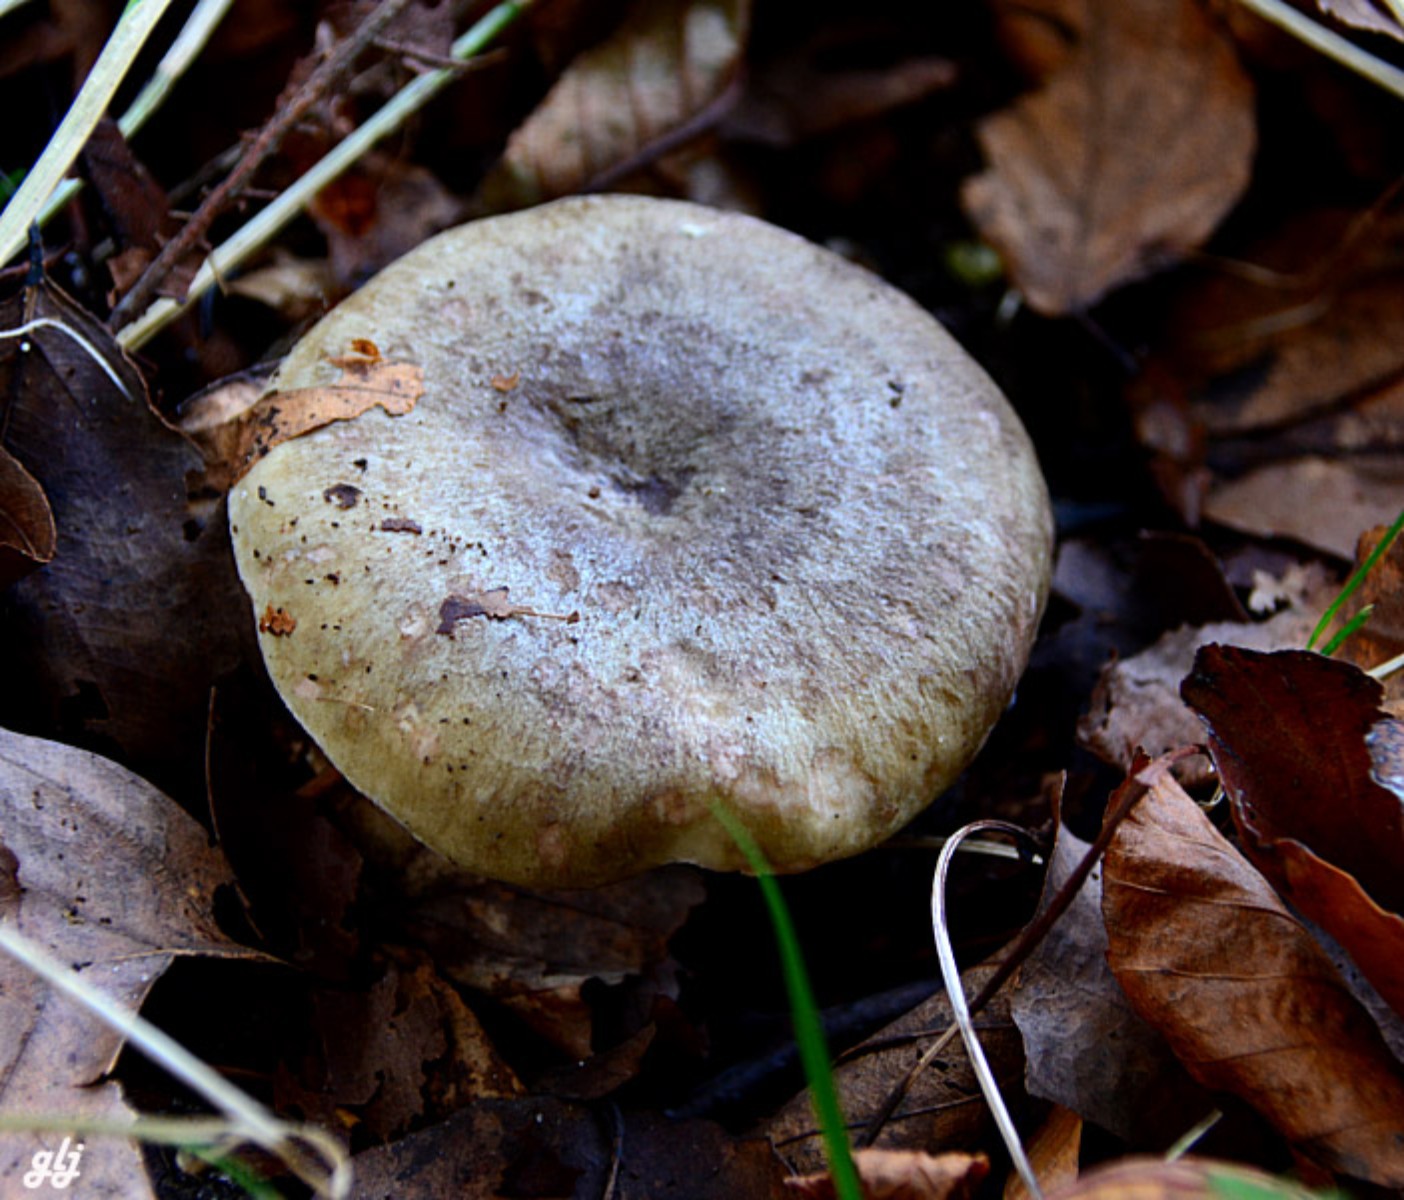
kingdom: Fungi
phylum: Basidiomycota
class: Agaricomycetes
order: Russulales
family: Russulaceae
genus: Lactarius
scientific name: Lactarius blennius
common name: dråbeplettet mælkehat
